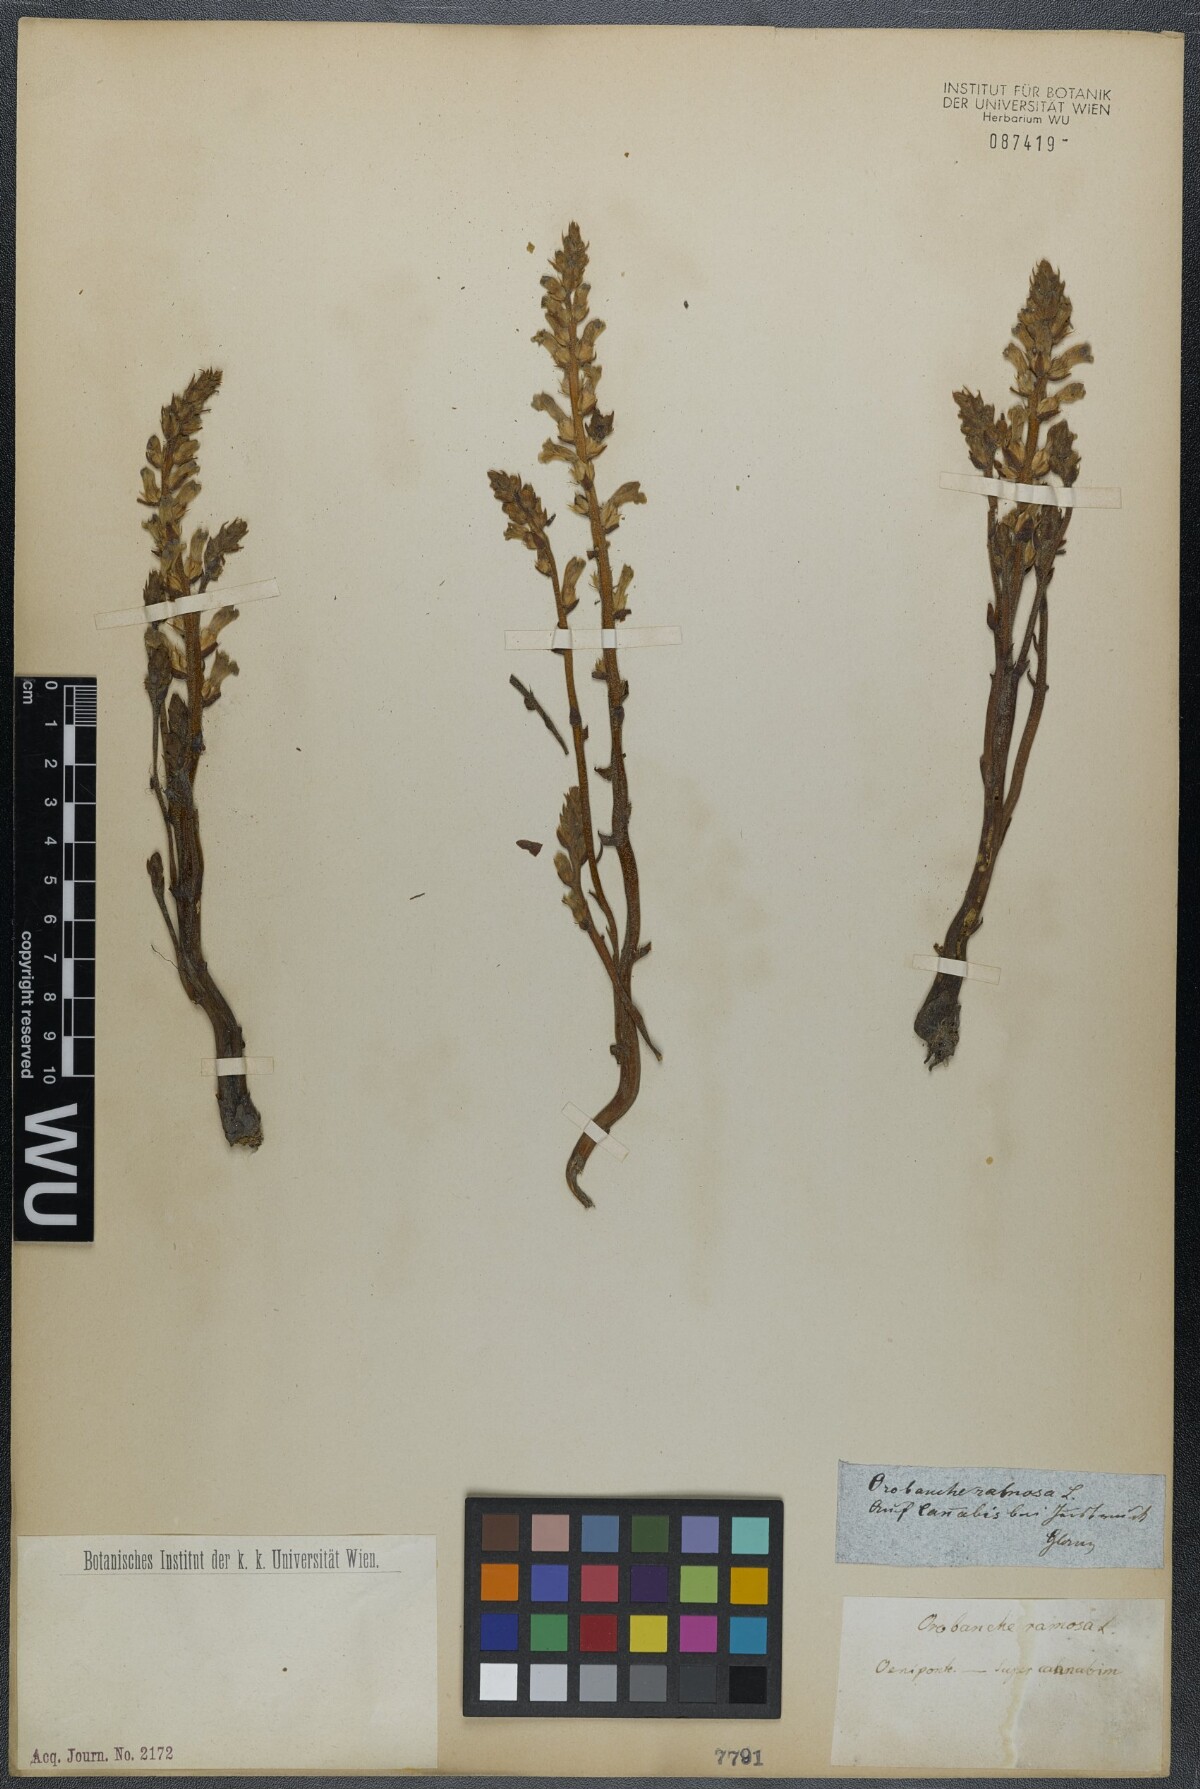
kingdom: Plantae
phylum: Tracheophyta
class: Magnoliopsida
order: Lamiales
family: Orobanchaceae
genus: Phelipanche
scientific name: Phelipanche ramosa
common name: Branched broomrape
